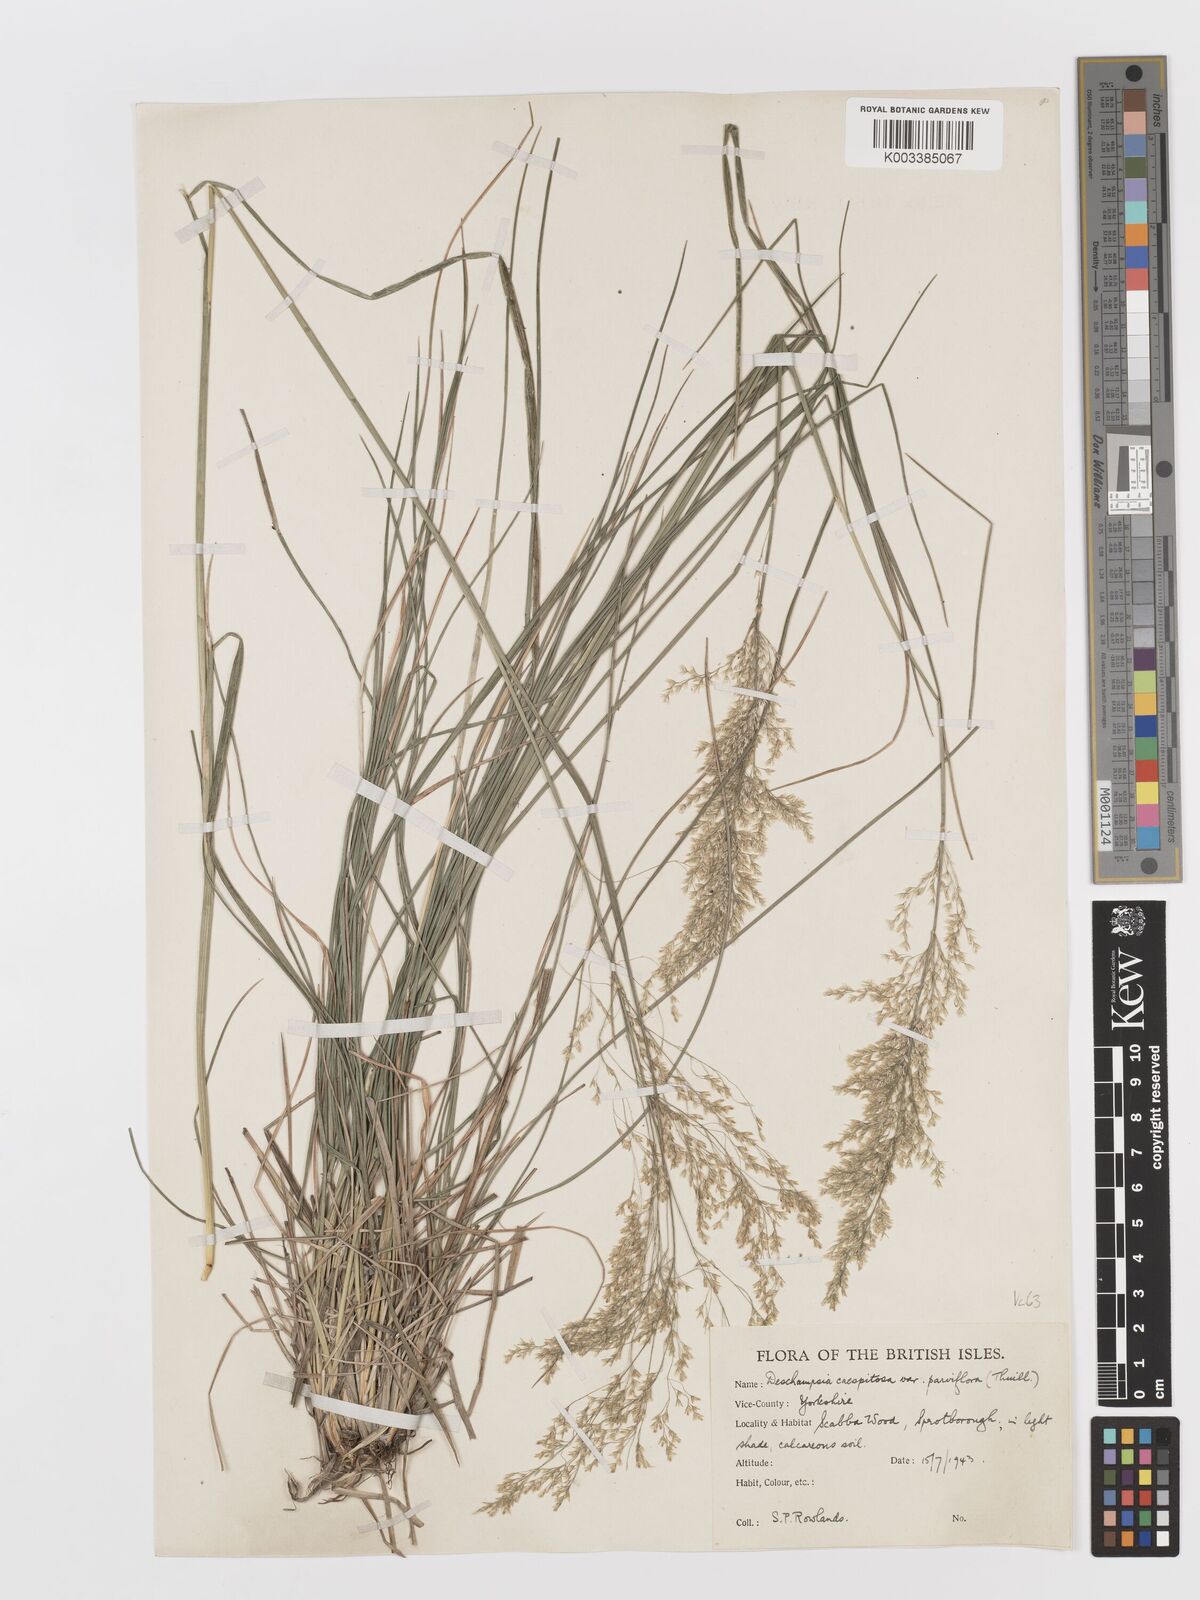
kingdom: Plantae
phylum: Tracheophyta
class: Liliopsida
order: Poales
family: Poaceae
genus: Deschampsia
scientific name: Deschampsia cespitosa
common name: Tufted hair-grass
